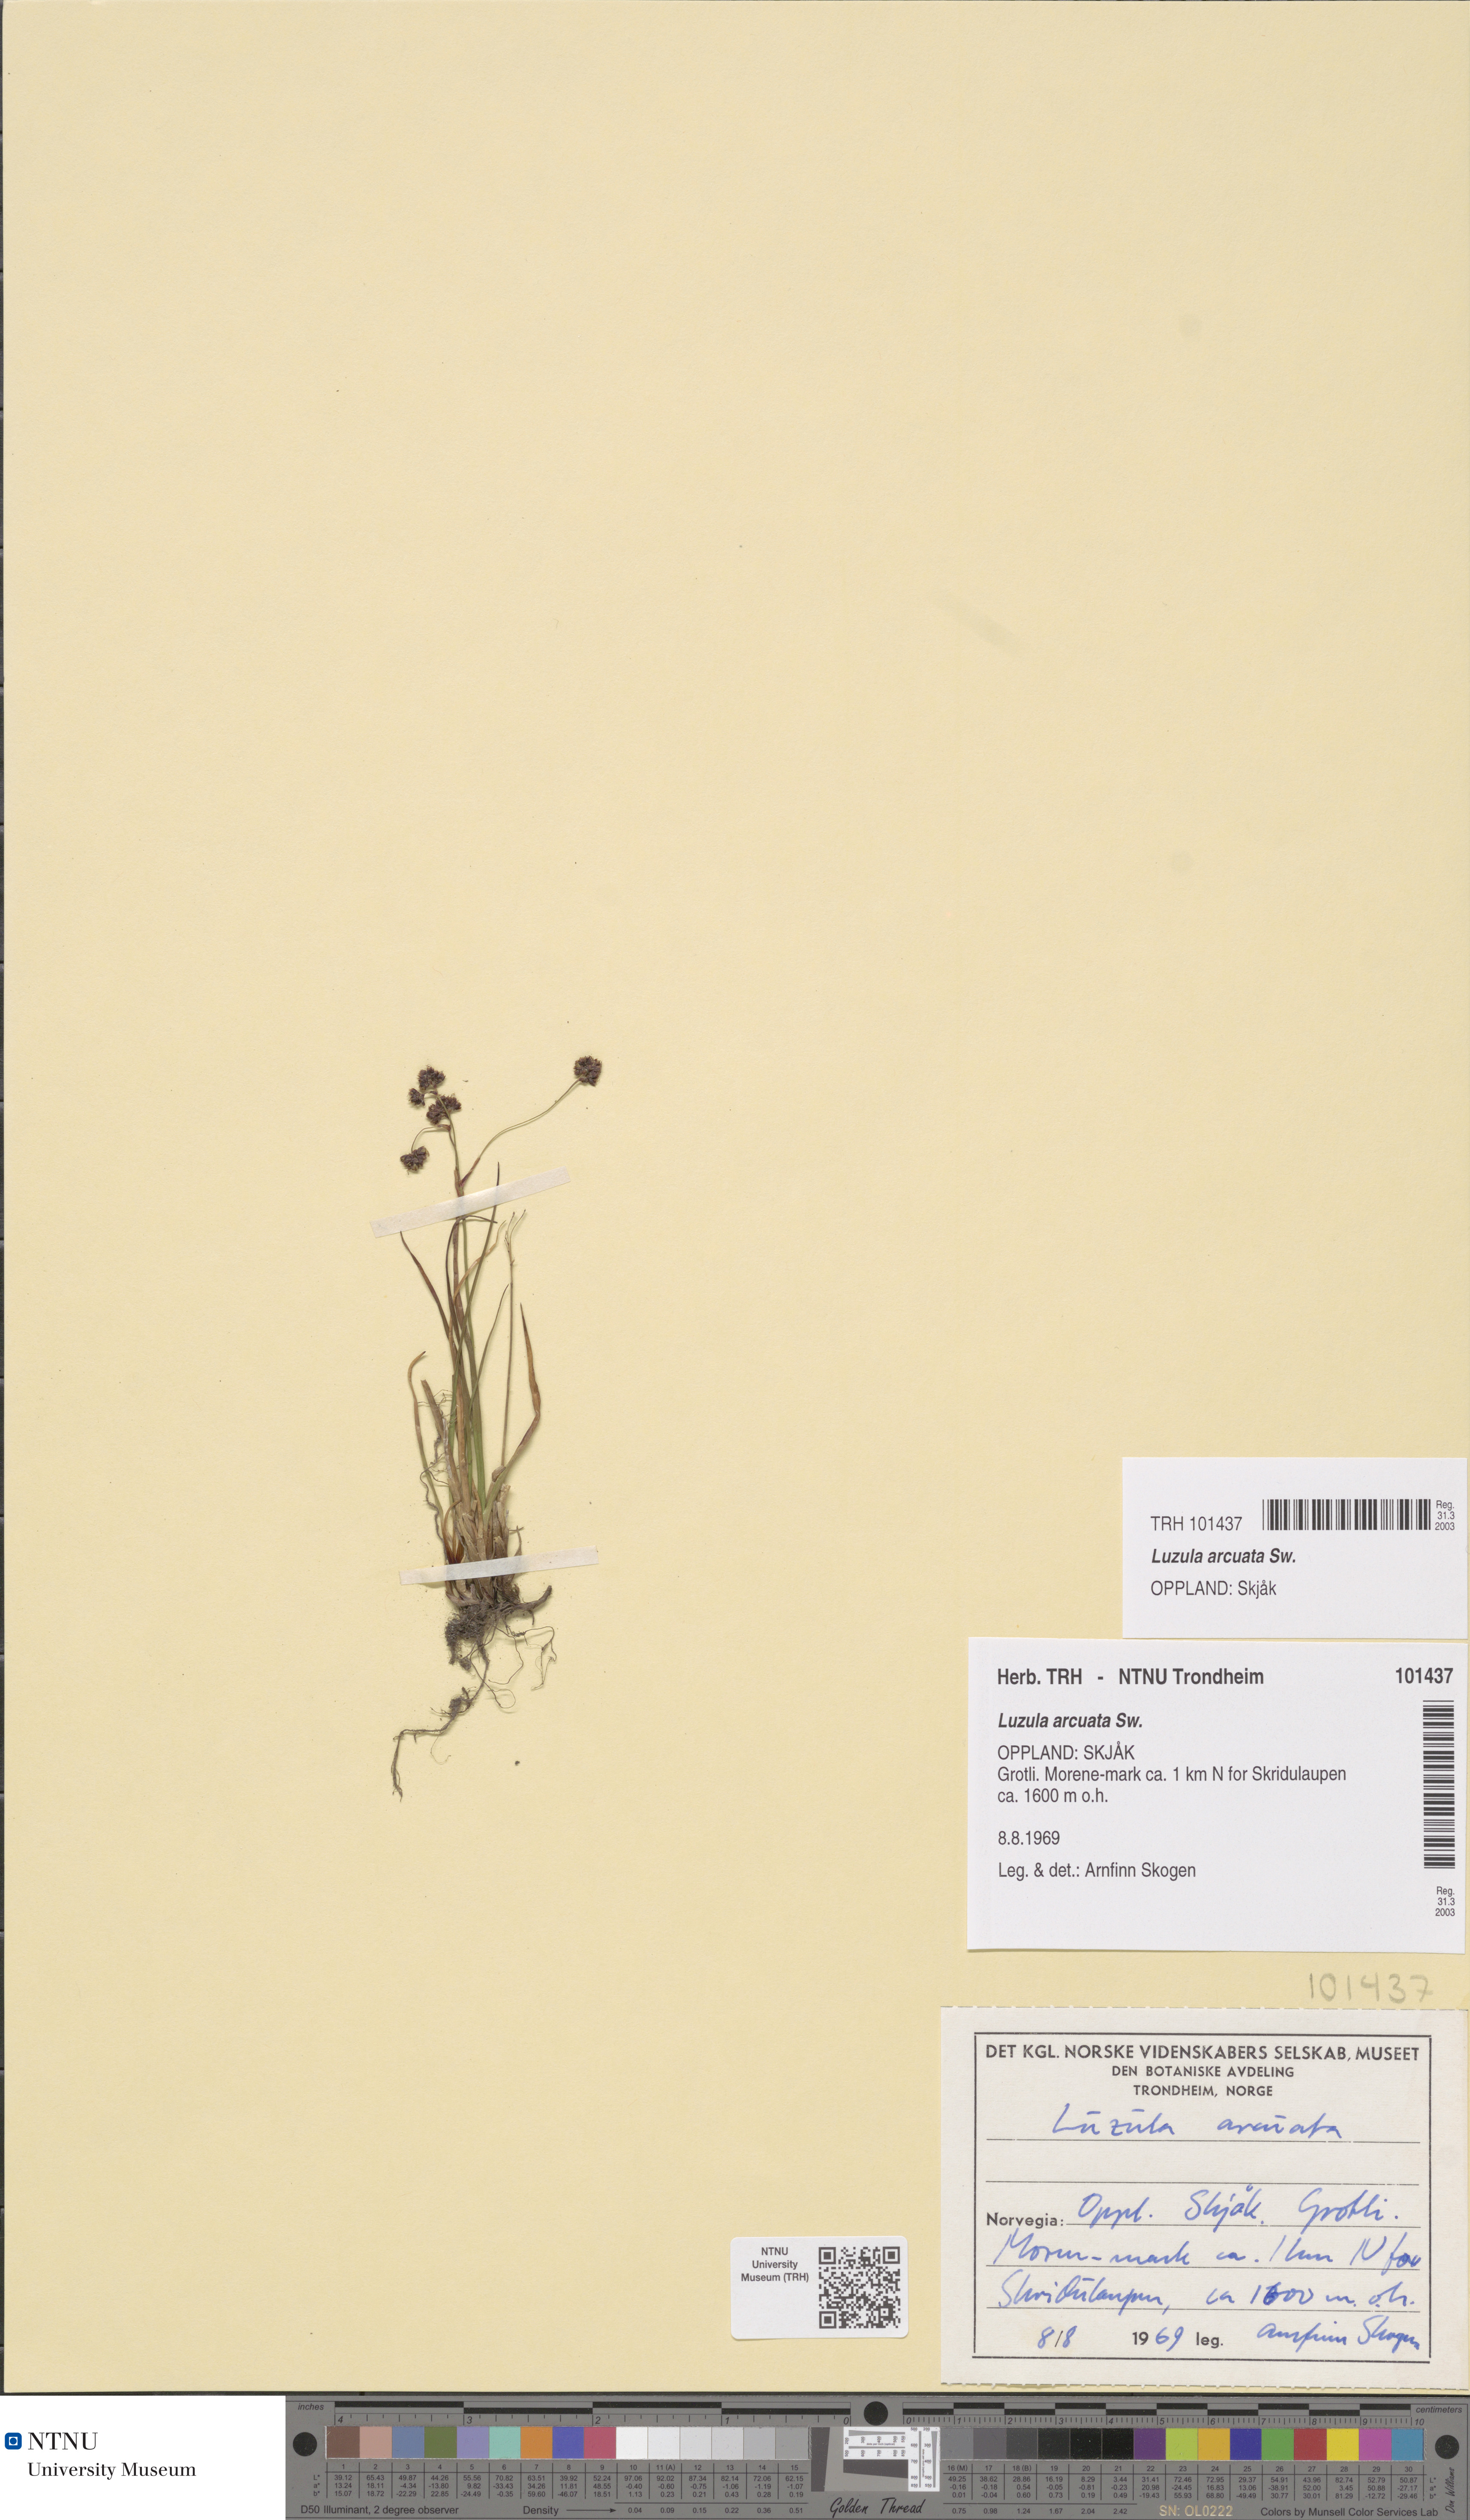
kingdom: Plantae
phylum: Tracheophyta
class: Liliopsida
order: Poales
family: Juncaceae
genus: Luzula
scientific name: Luzula arcuata
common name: Curved wood-rush
